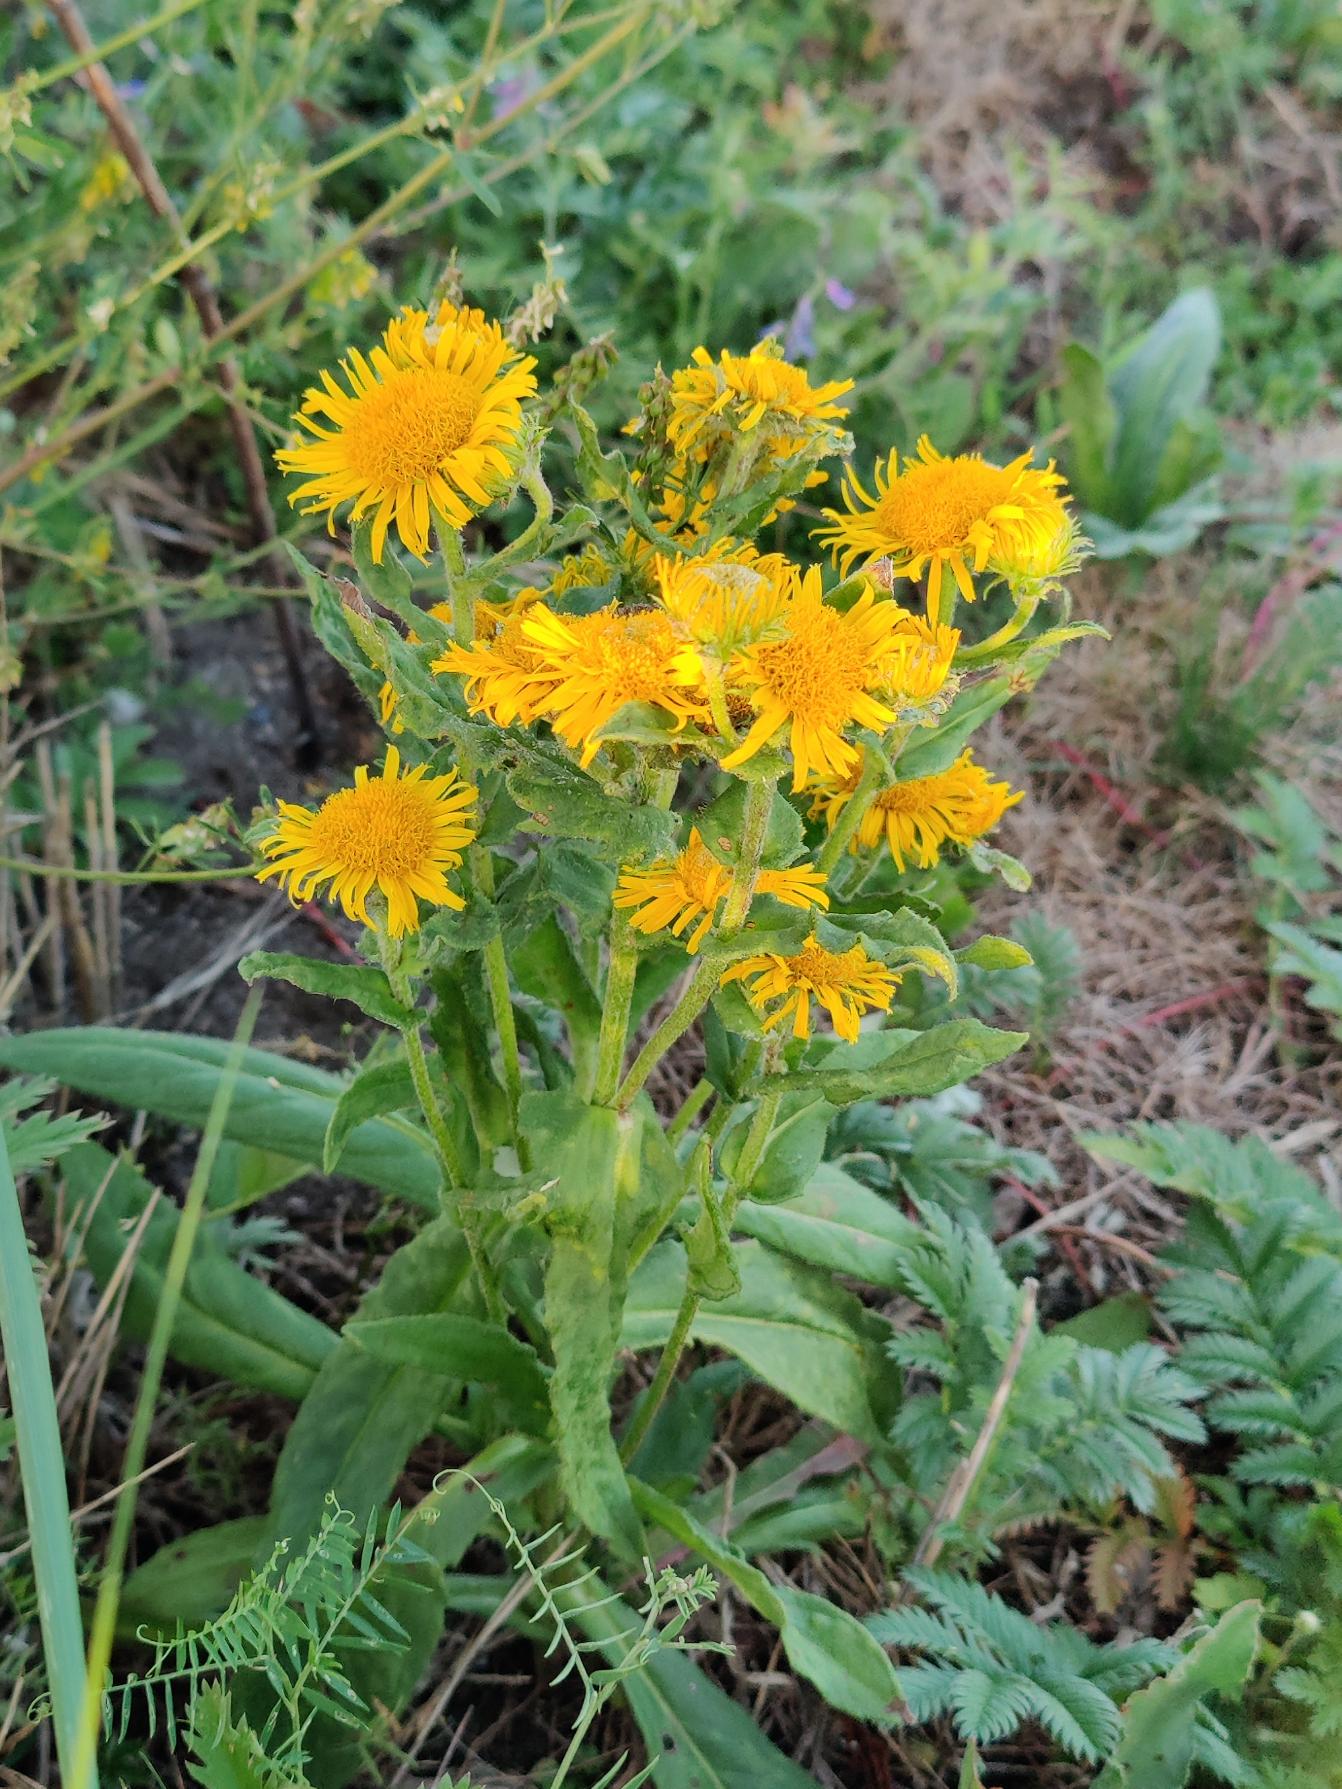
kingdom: Plantae
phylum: Tracheophyta
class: Magnoliopsida
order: Asterales
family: Asteraceae
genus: Pentanema
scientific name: Pentanema britannicum
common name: Soløje-alant
